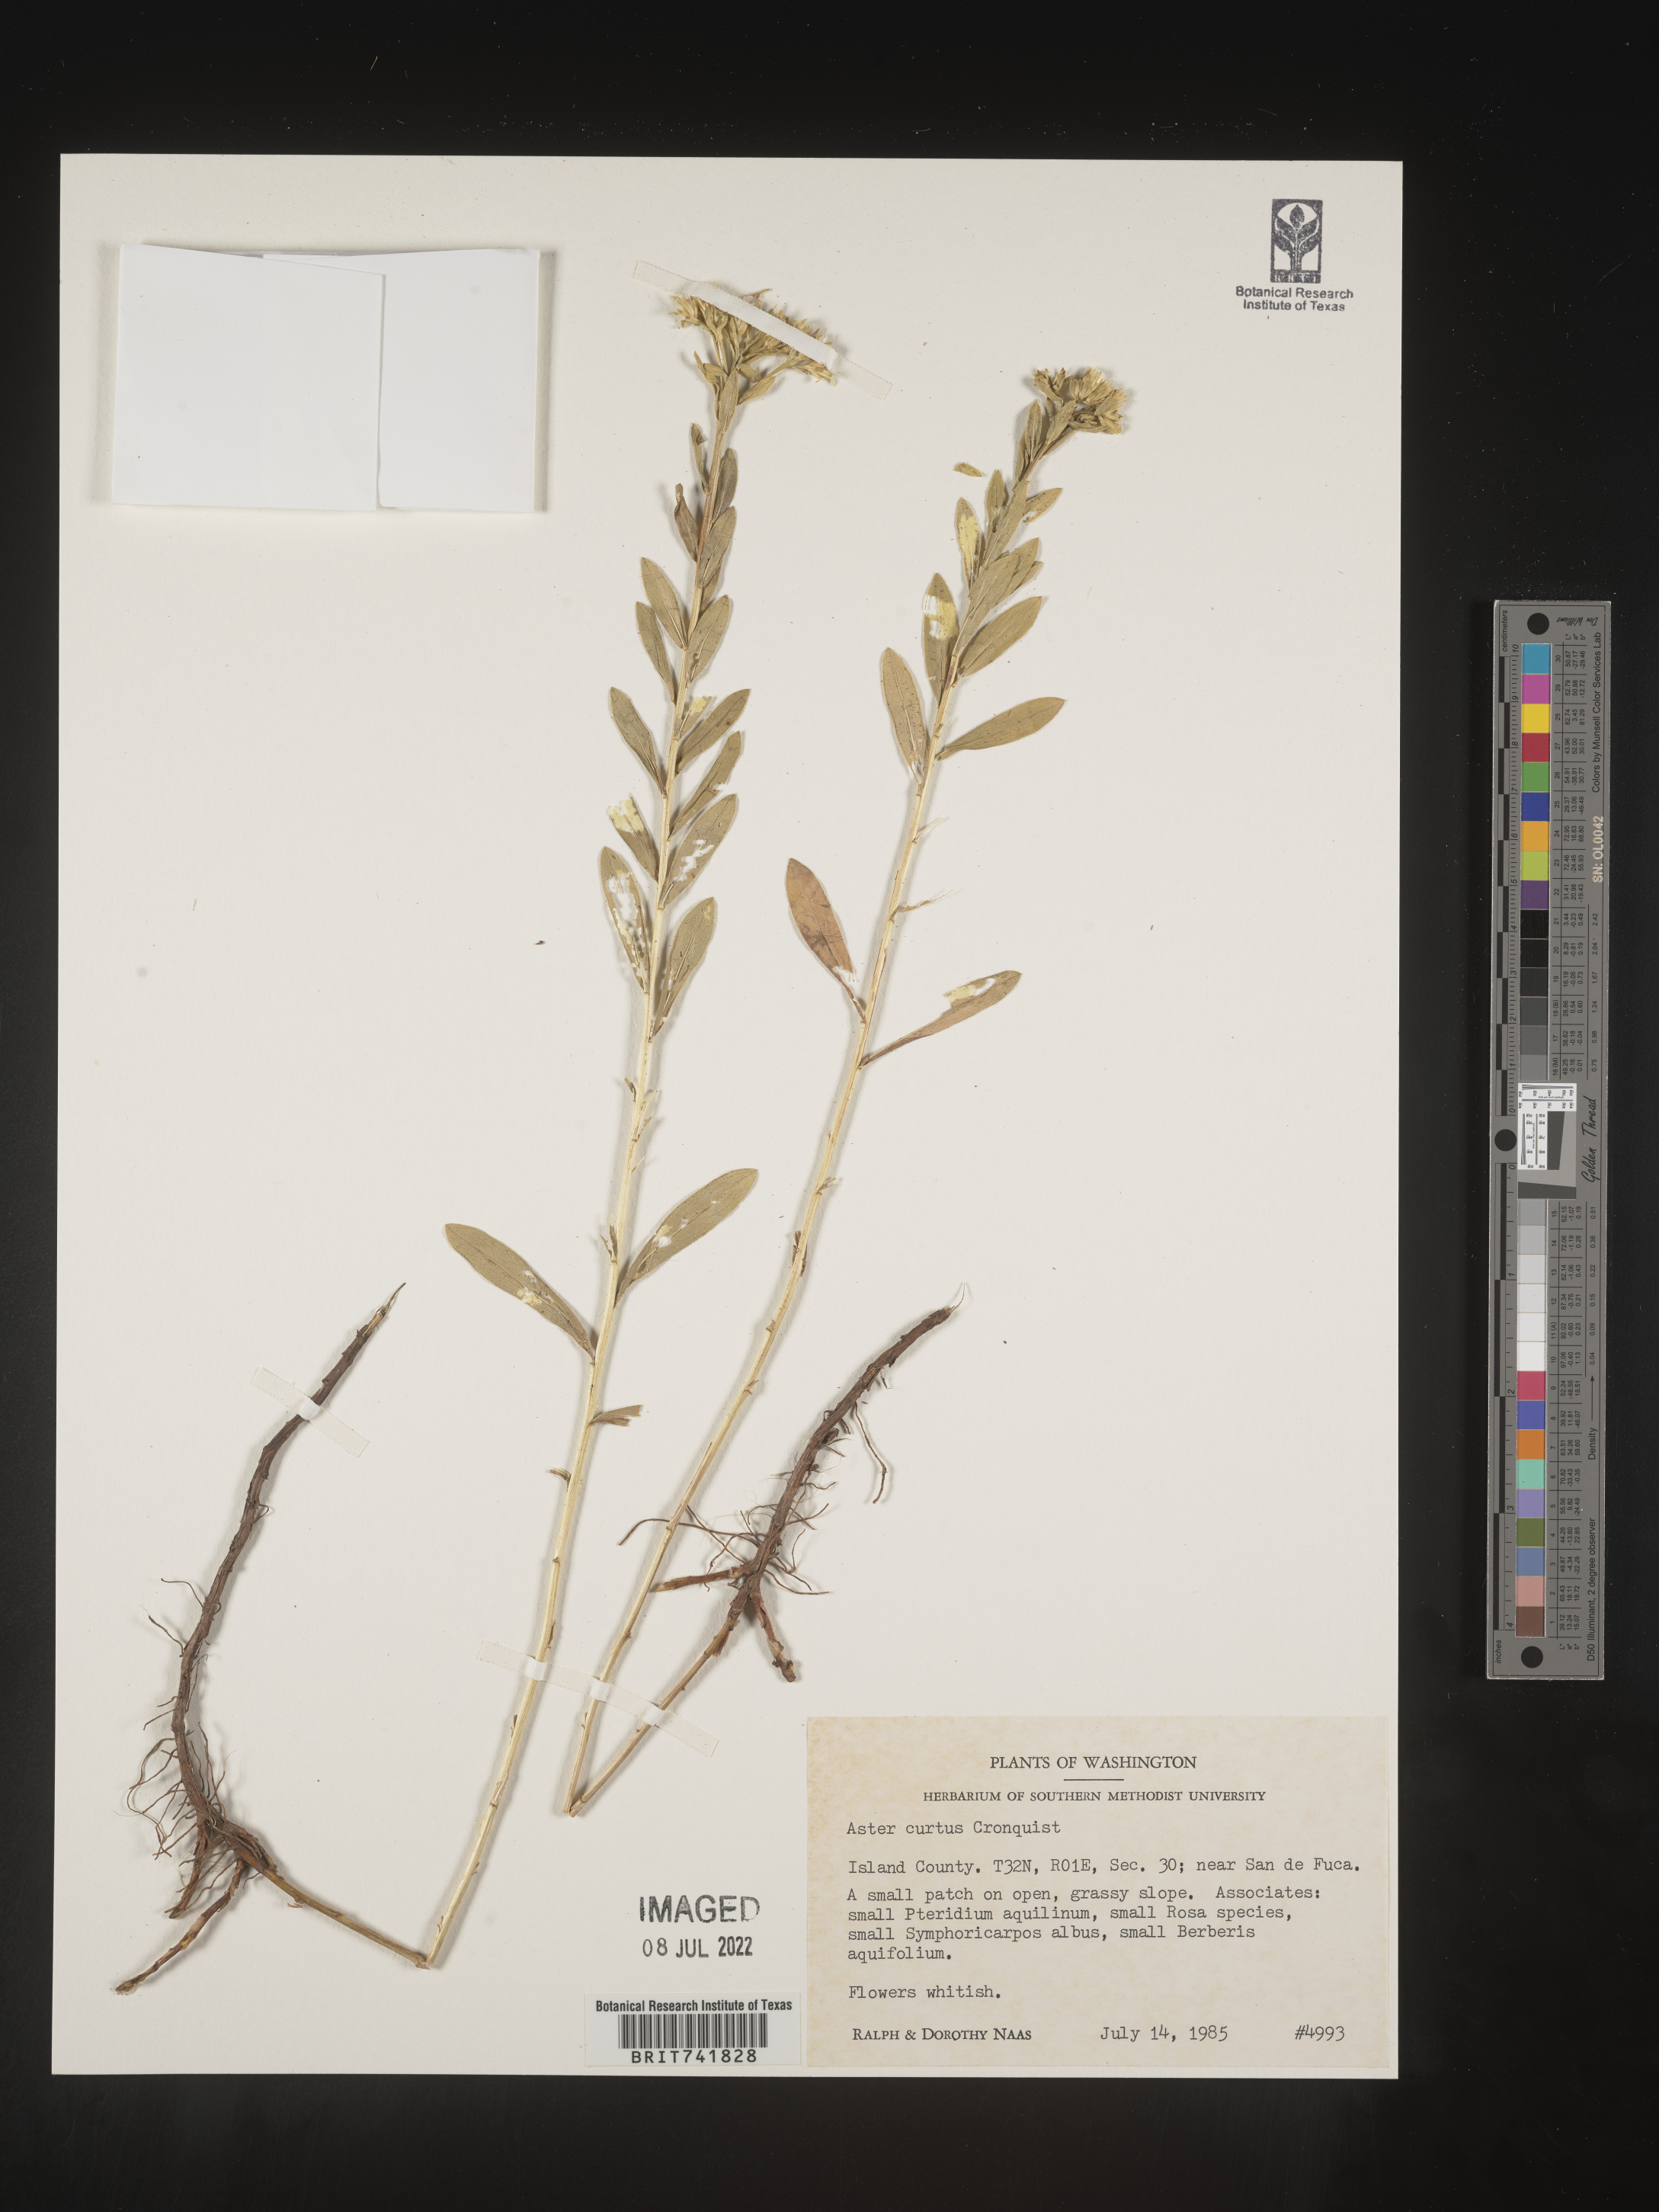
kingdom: Plantae
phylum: Tracheophyta
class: Magnoliopsida
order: Asterales
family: Asteraceae
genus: Sericocarpus
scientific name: Sericocarpus rigidus
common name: Columbia white-top aster
